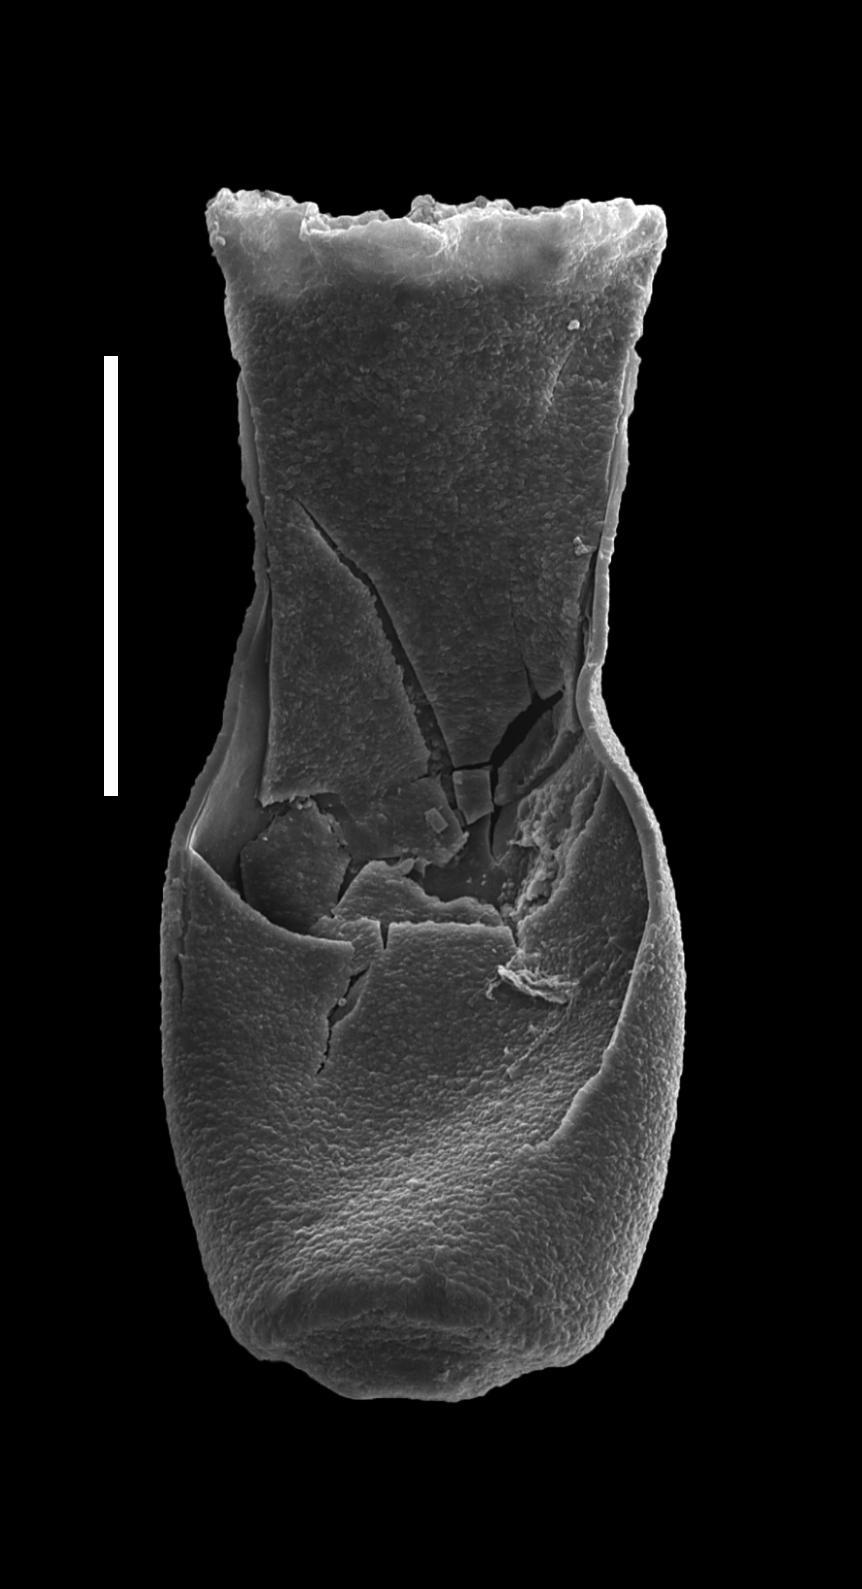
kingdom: Animalia
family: Lagenochitinidae
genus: Lagenochitina
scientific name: Lagenochitina
